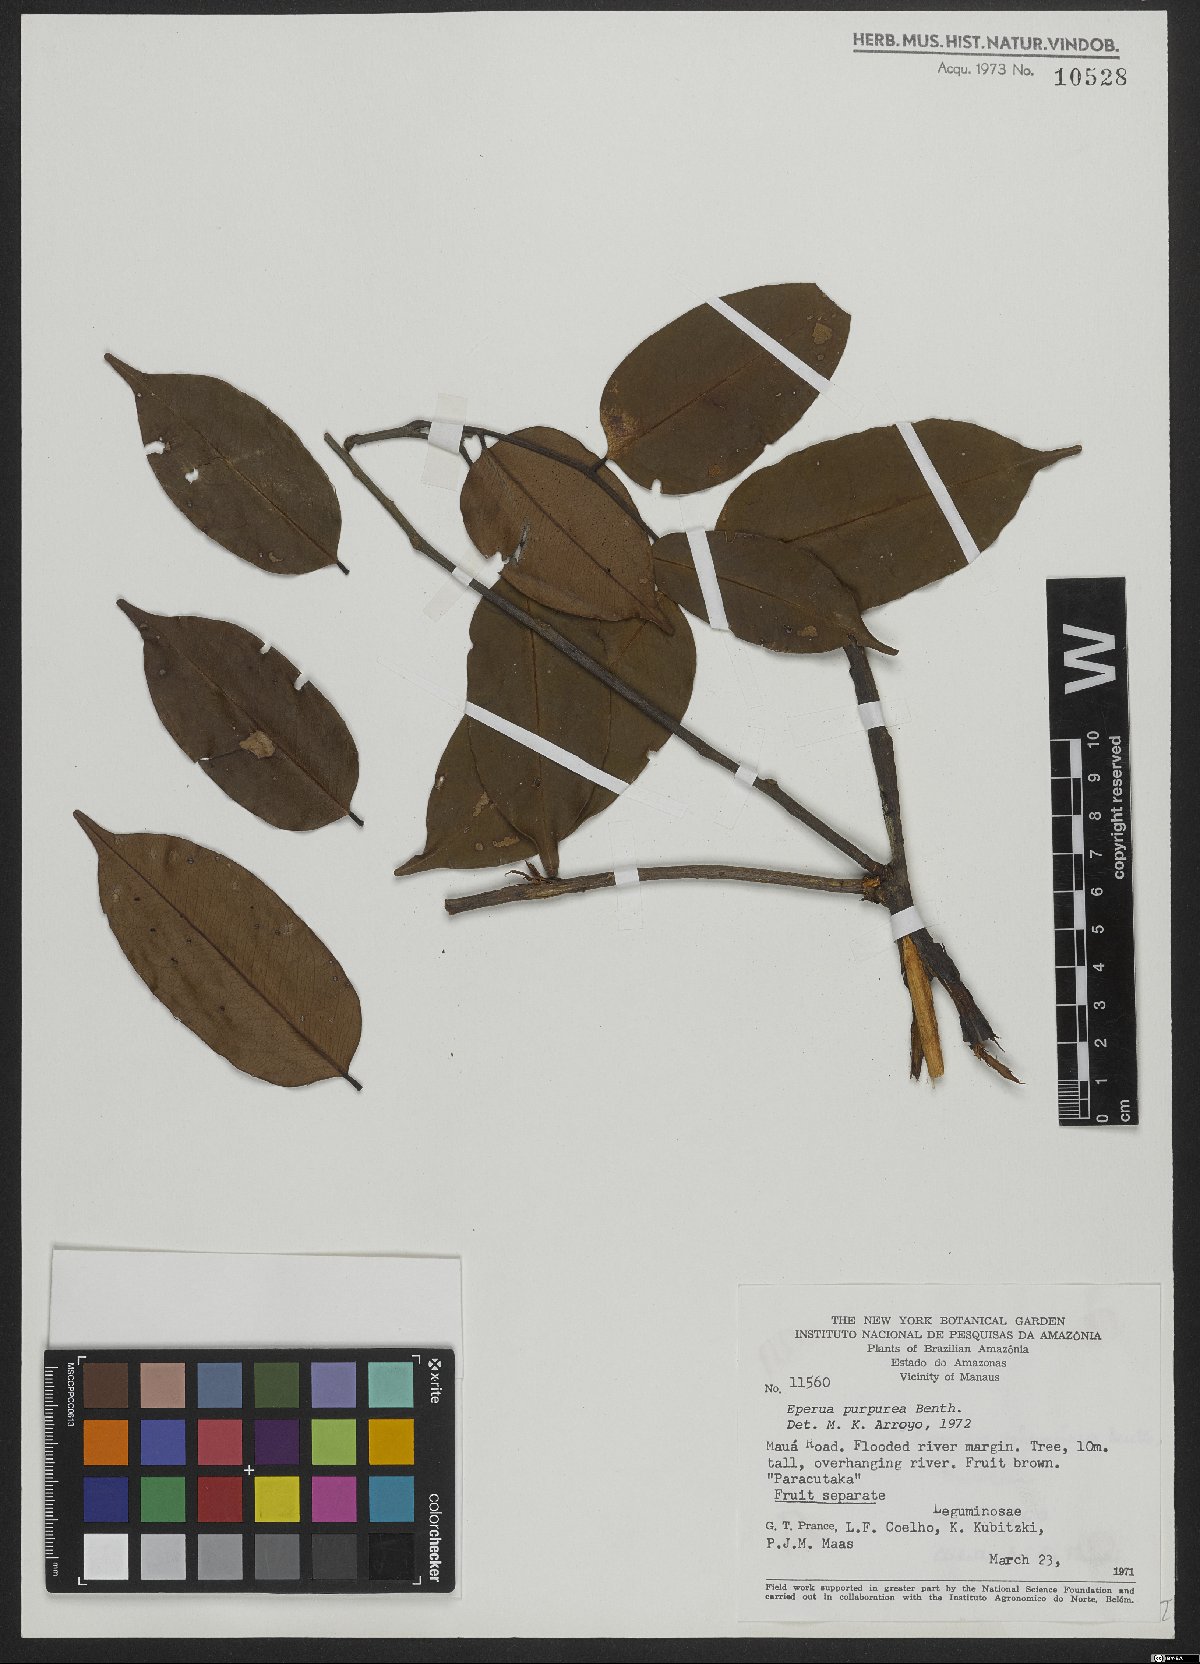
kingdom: Plantae
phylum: Tracheophyta
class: Magnoliopsida
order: Fabales
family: Fabaceae
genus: Eperua
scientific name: Eperua purpurea
